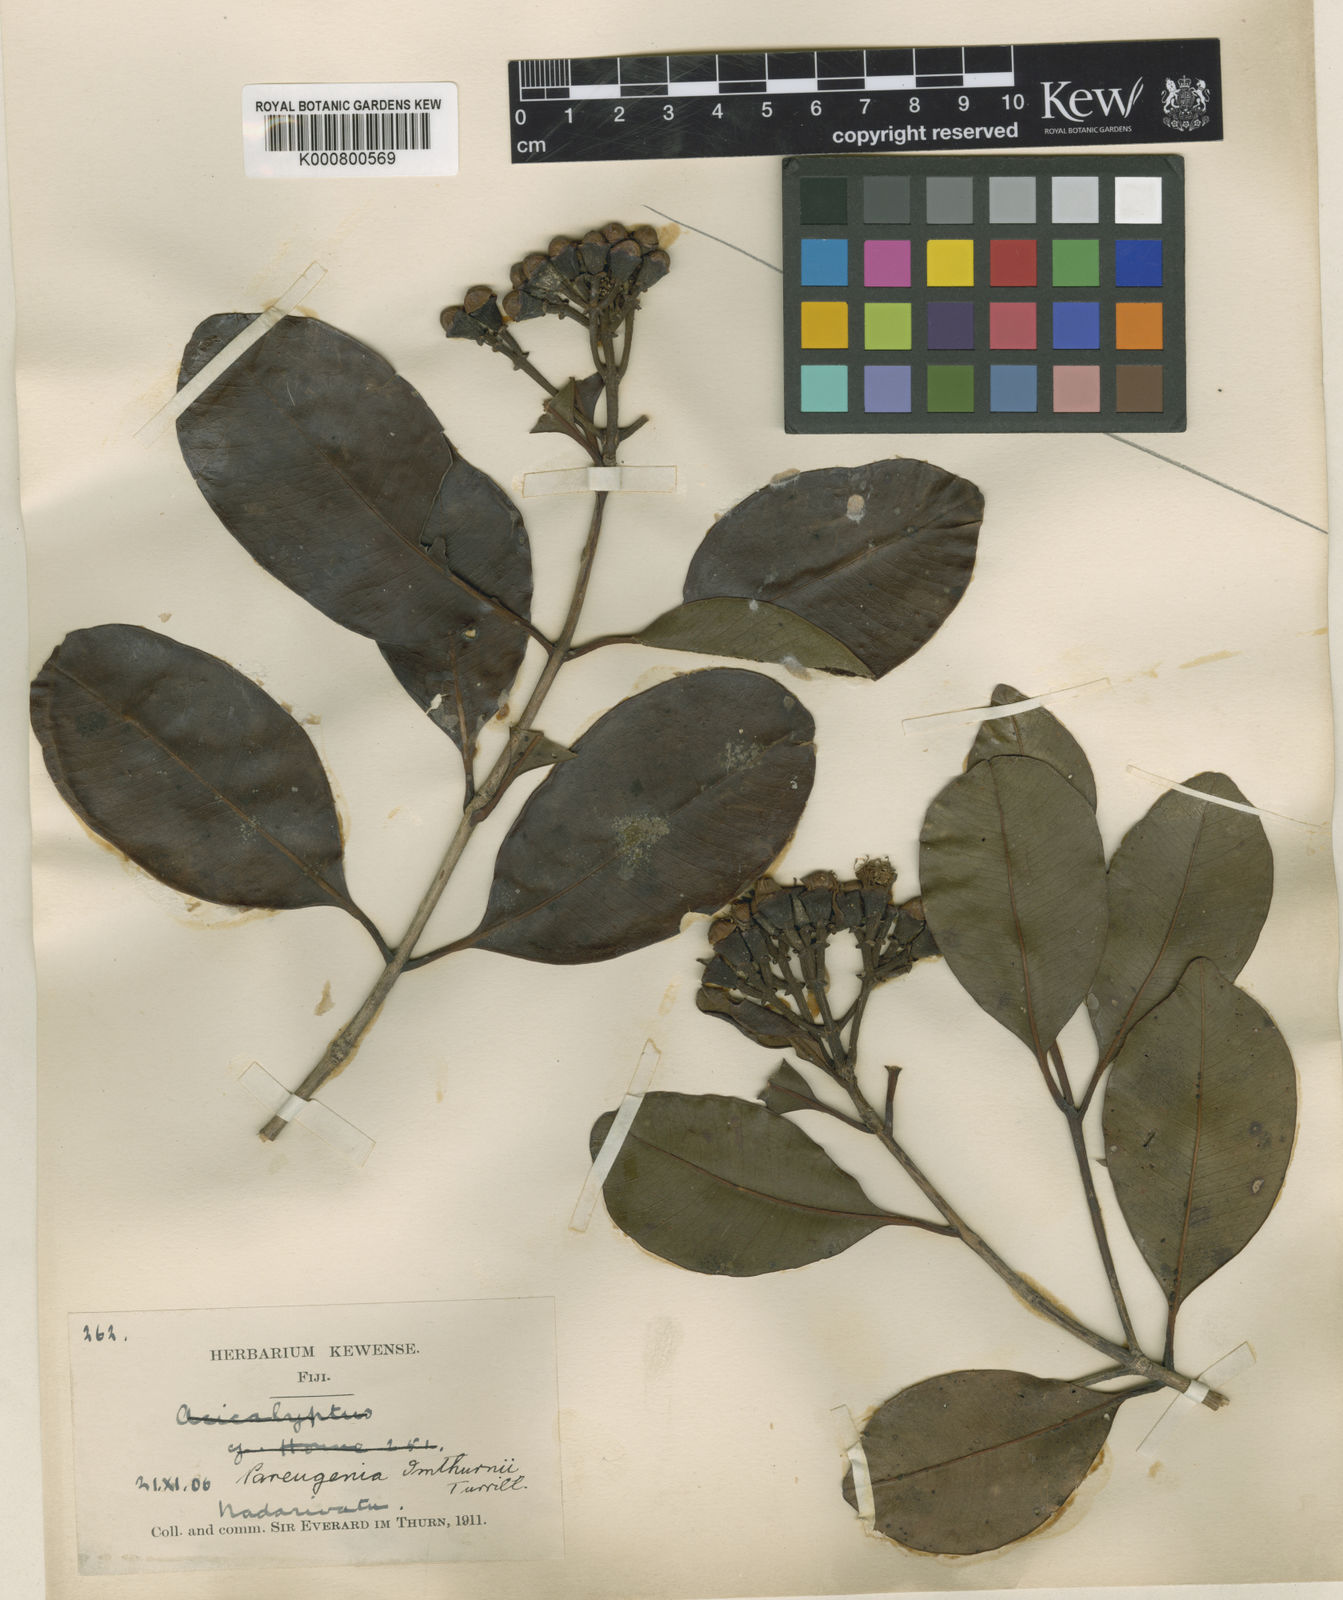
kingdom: Plantae
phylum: Tracheophyta
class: Magnoliopsida
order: Myrtales
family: Myrtaceae
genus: Syzygium
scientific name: Syzygium brackenridgei
